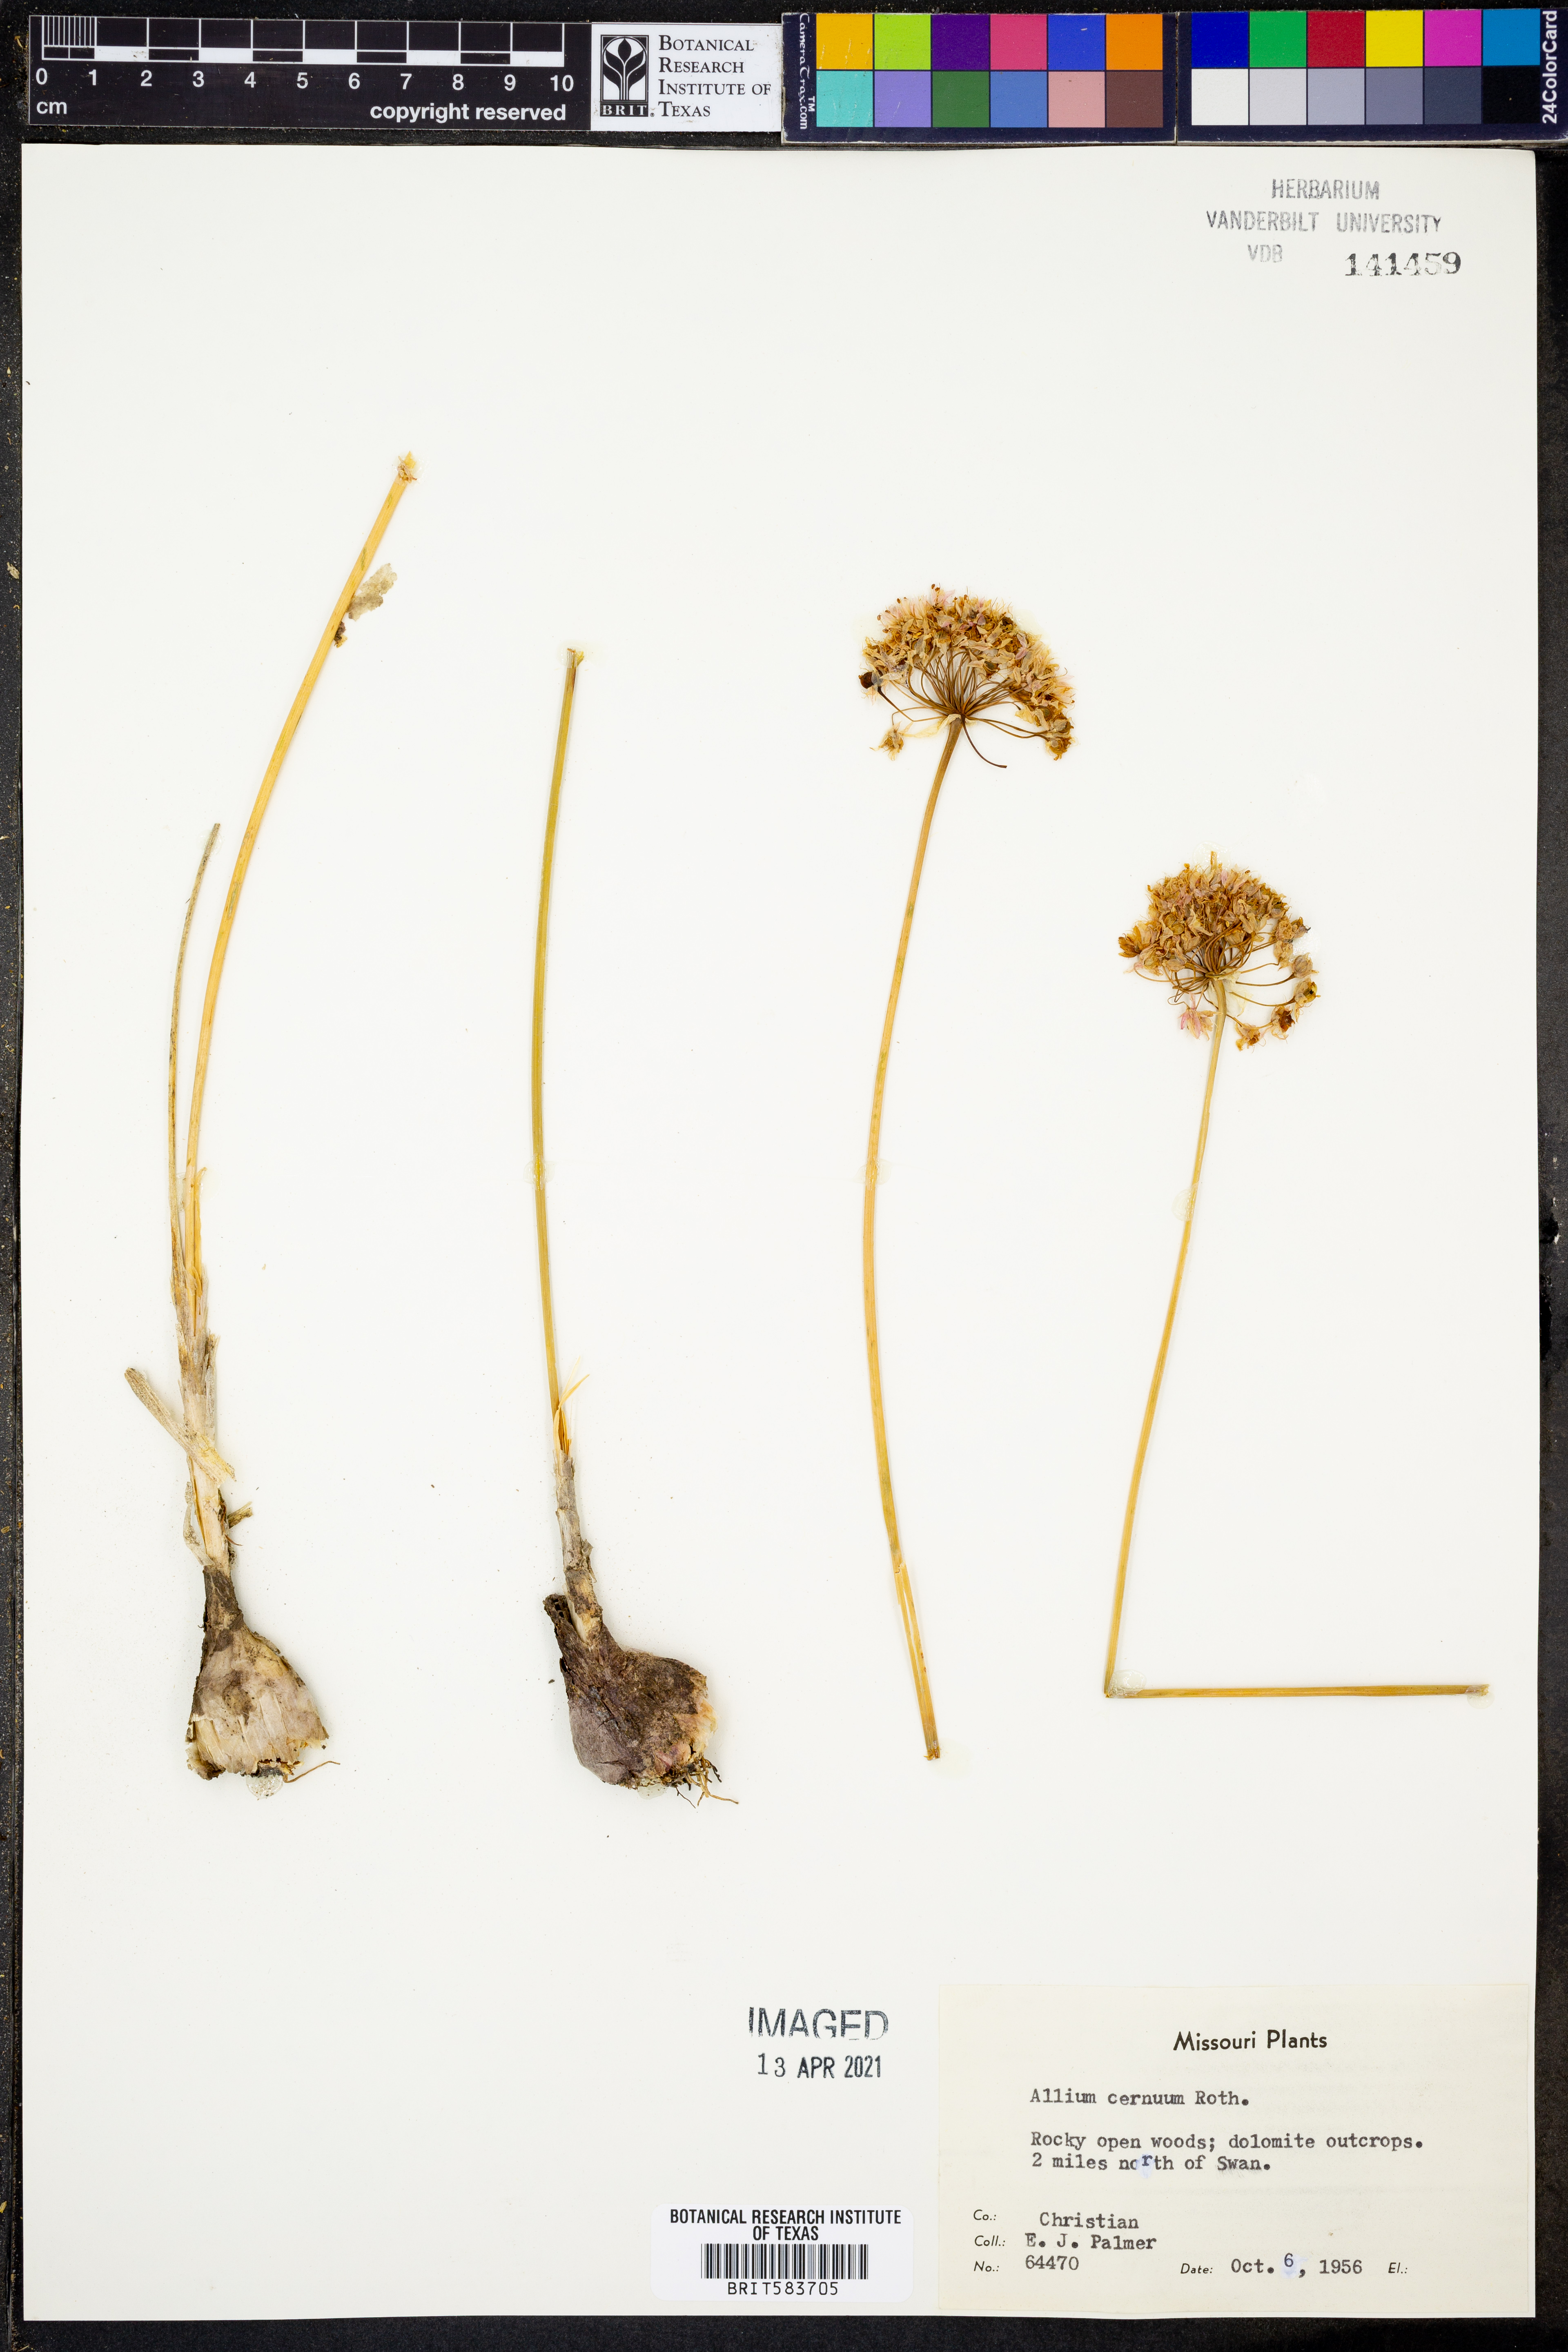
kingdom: Plantae
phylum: Tracheophyta
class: Liliopsida
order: Asparagales
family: Amaryllidaceae
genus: Allium
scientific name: Allium cernuum
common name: Nodding onion
